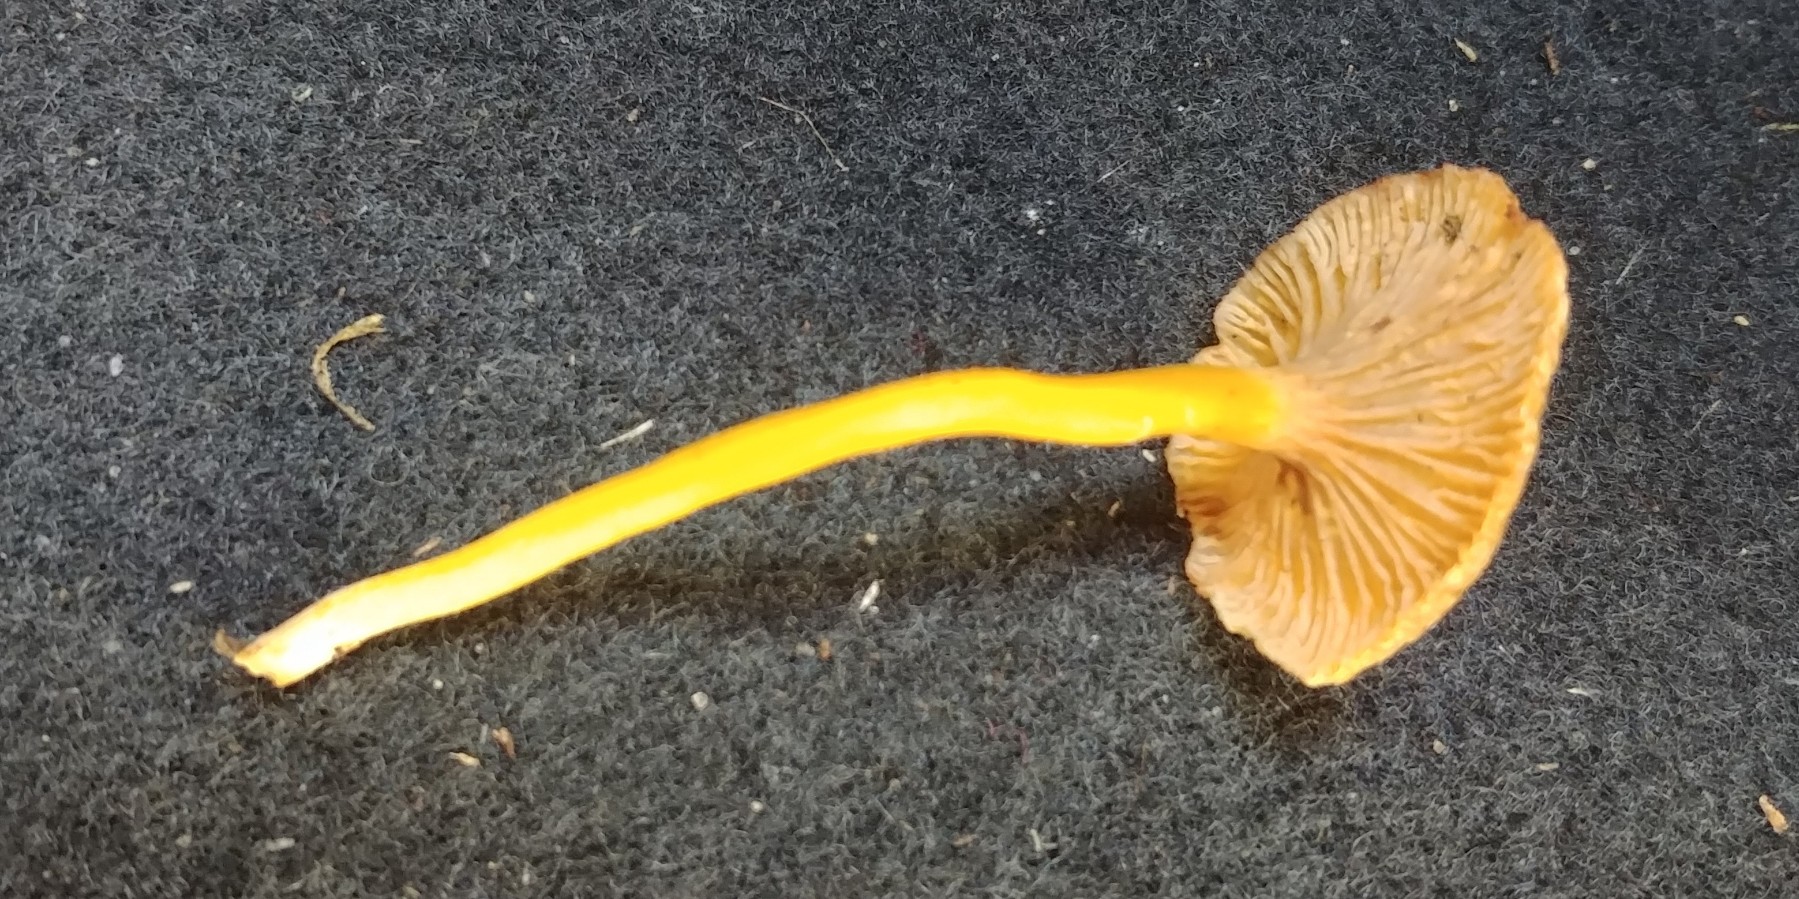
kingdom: Fungi
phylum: Basidiomycota
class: Agaricomycetes
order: Cantharellales
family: Hydnaceae
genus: Craterellus
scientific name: Craterellus tubaeformis
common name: tragt-kantarel
